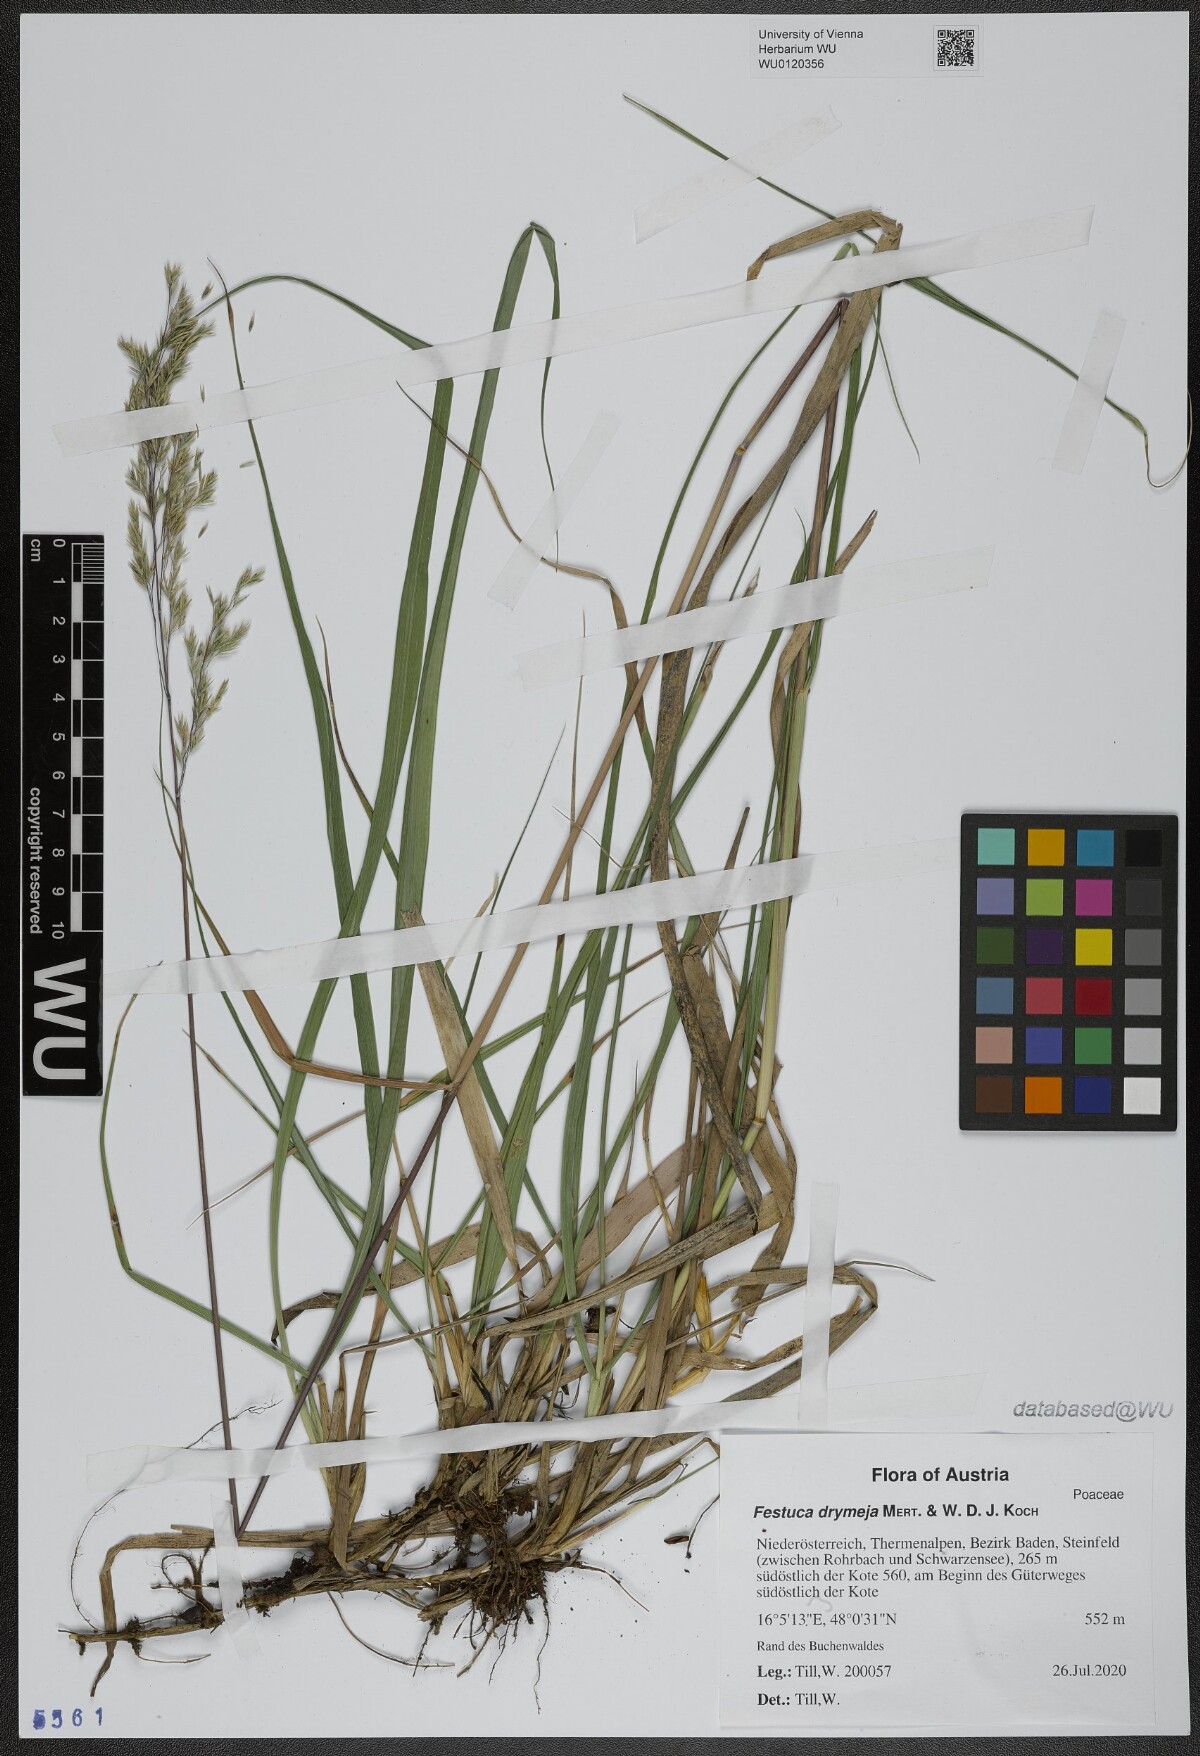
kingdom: Plantae
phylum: Tracheophyta
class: Liliopsida
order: Poales
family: Poaceae
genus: Festuca
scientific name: Festuca drymeja
